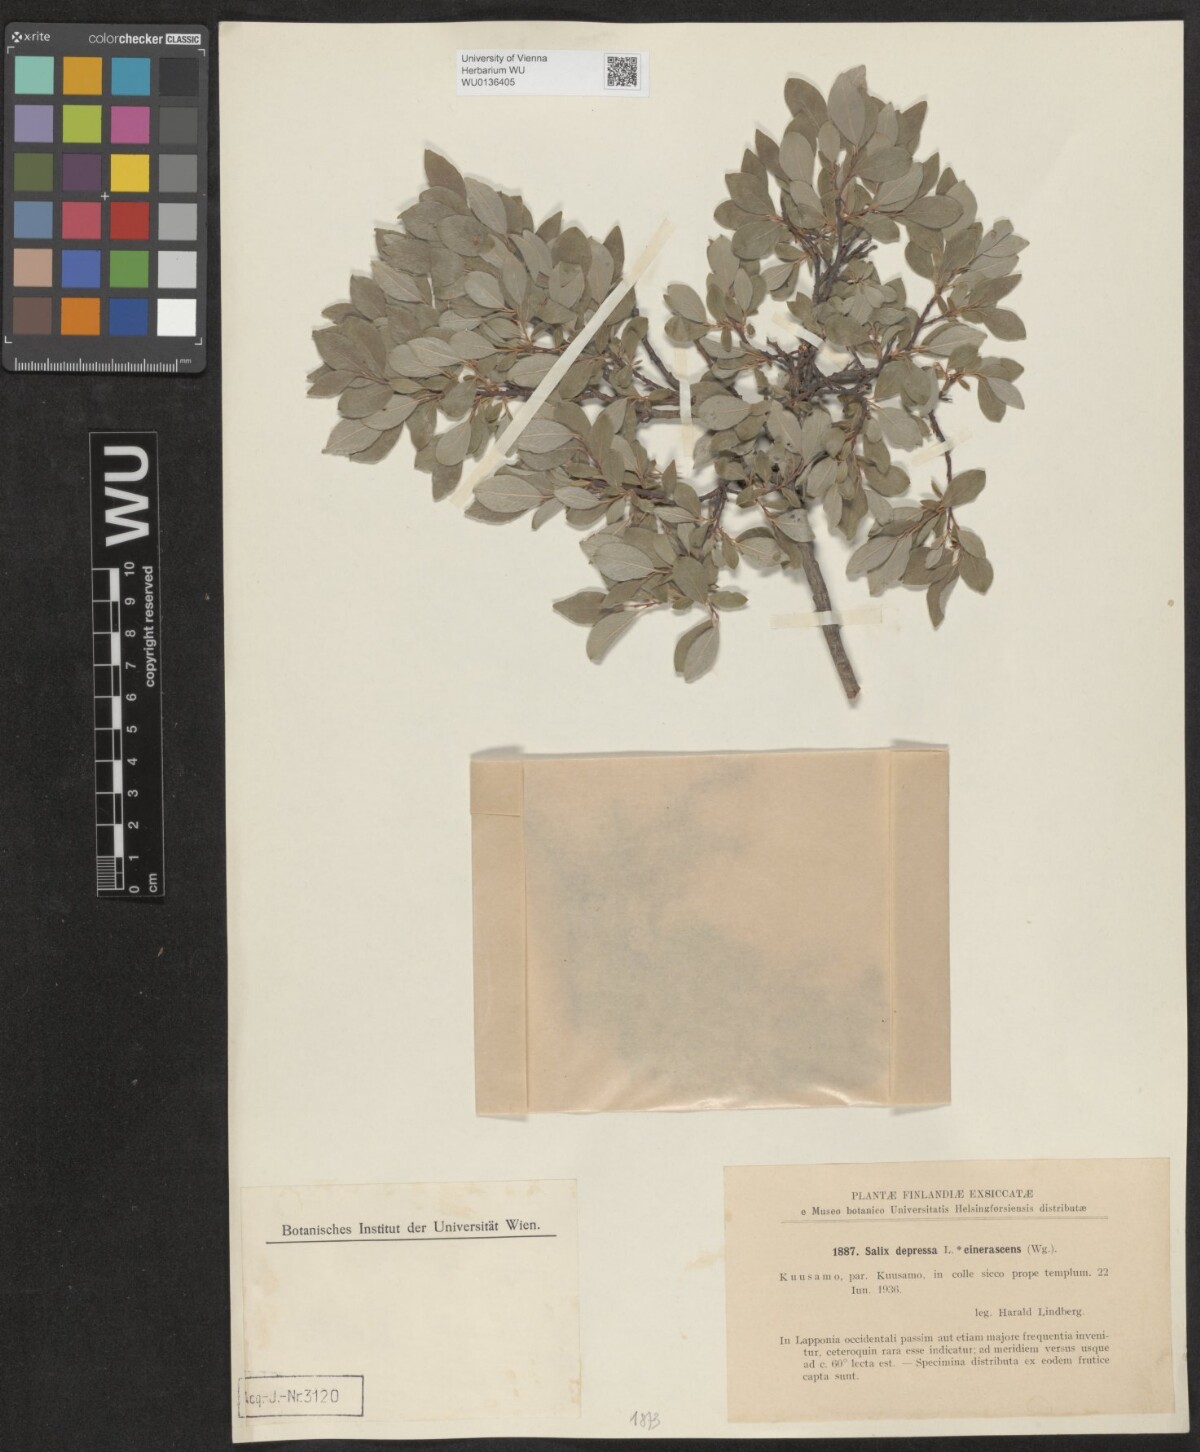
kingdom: Plantae
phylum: Tracheophyta
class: Magnoliopsida
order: Malpighiales
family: Salicaceae
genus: Salix
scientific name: Salix lanata
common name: Woolly willow
